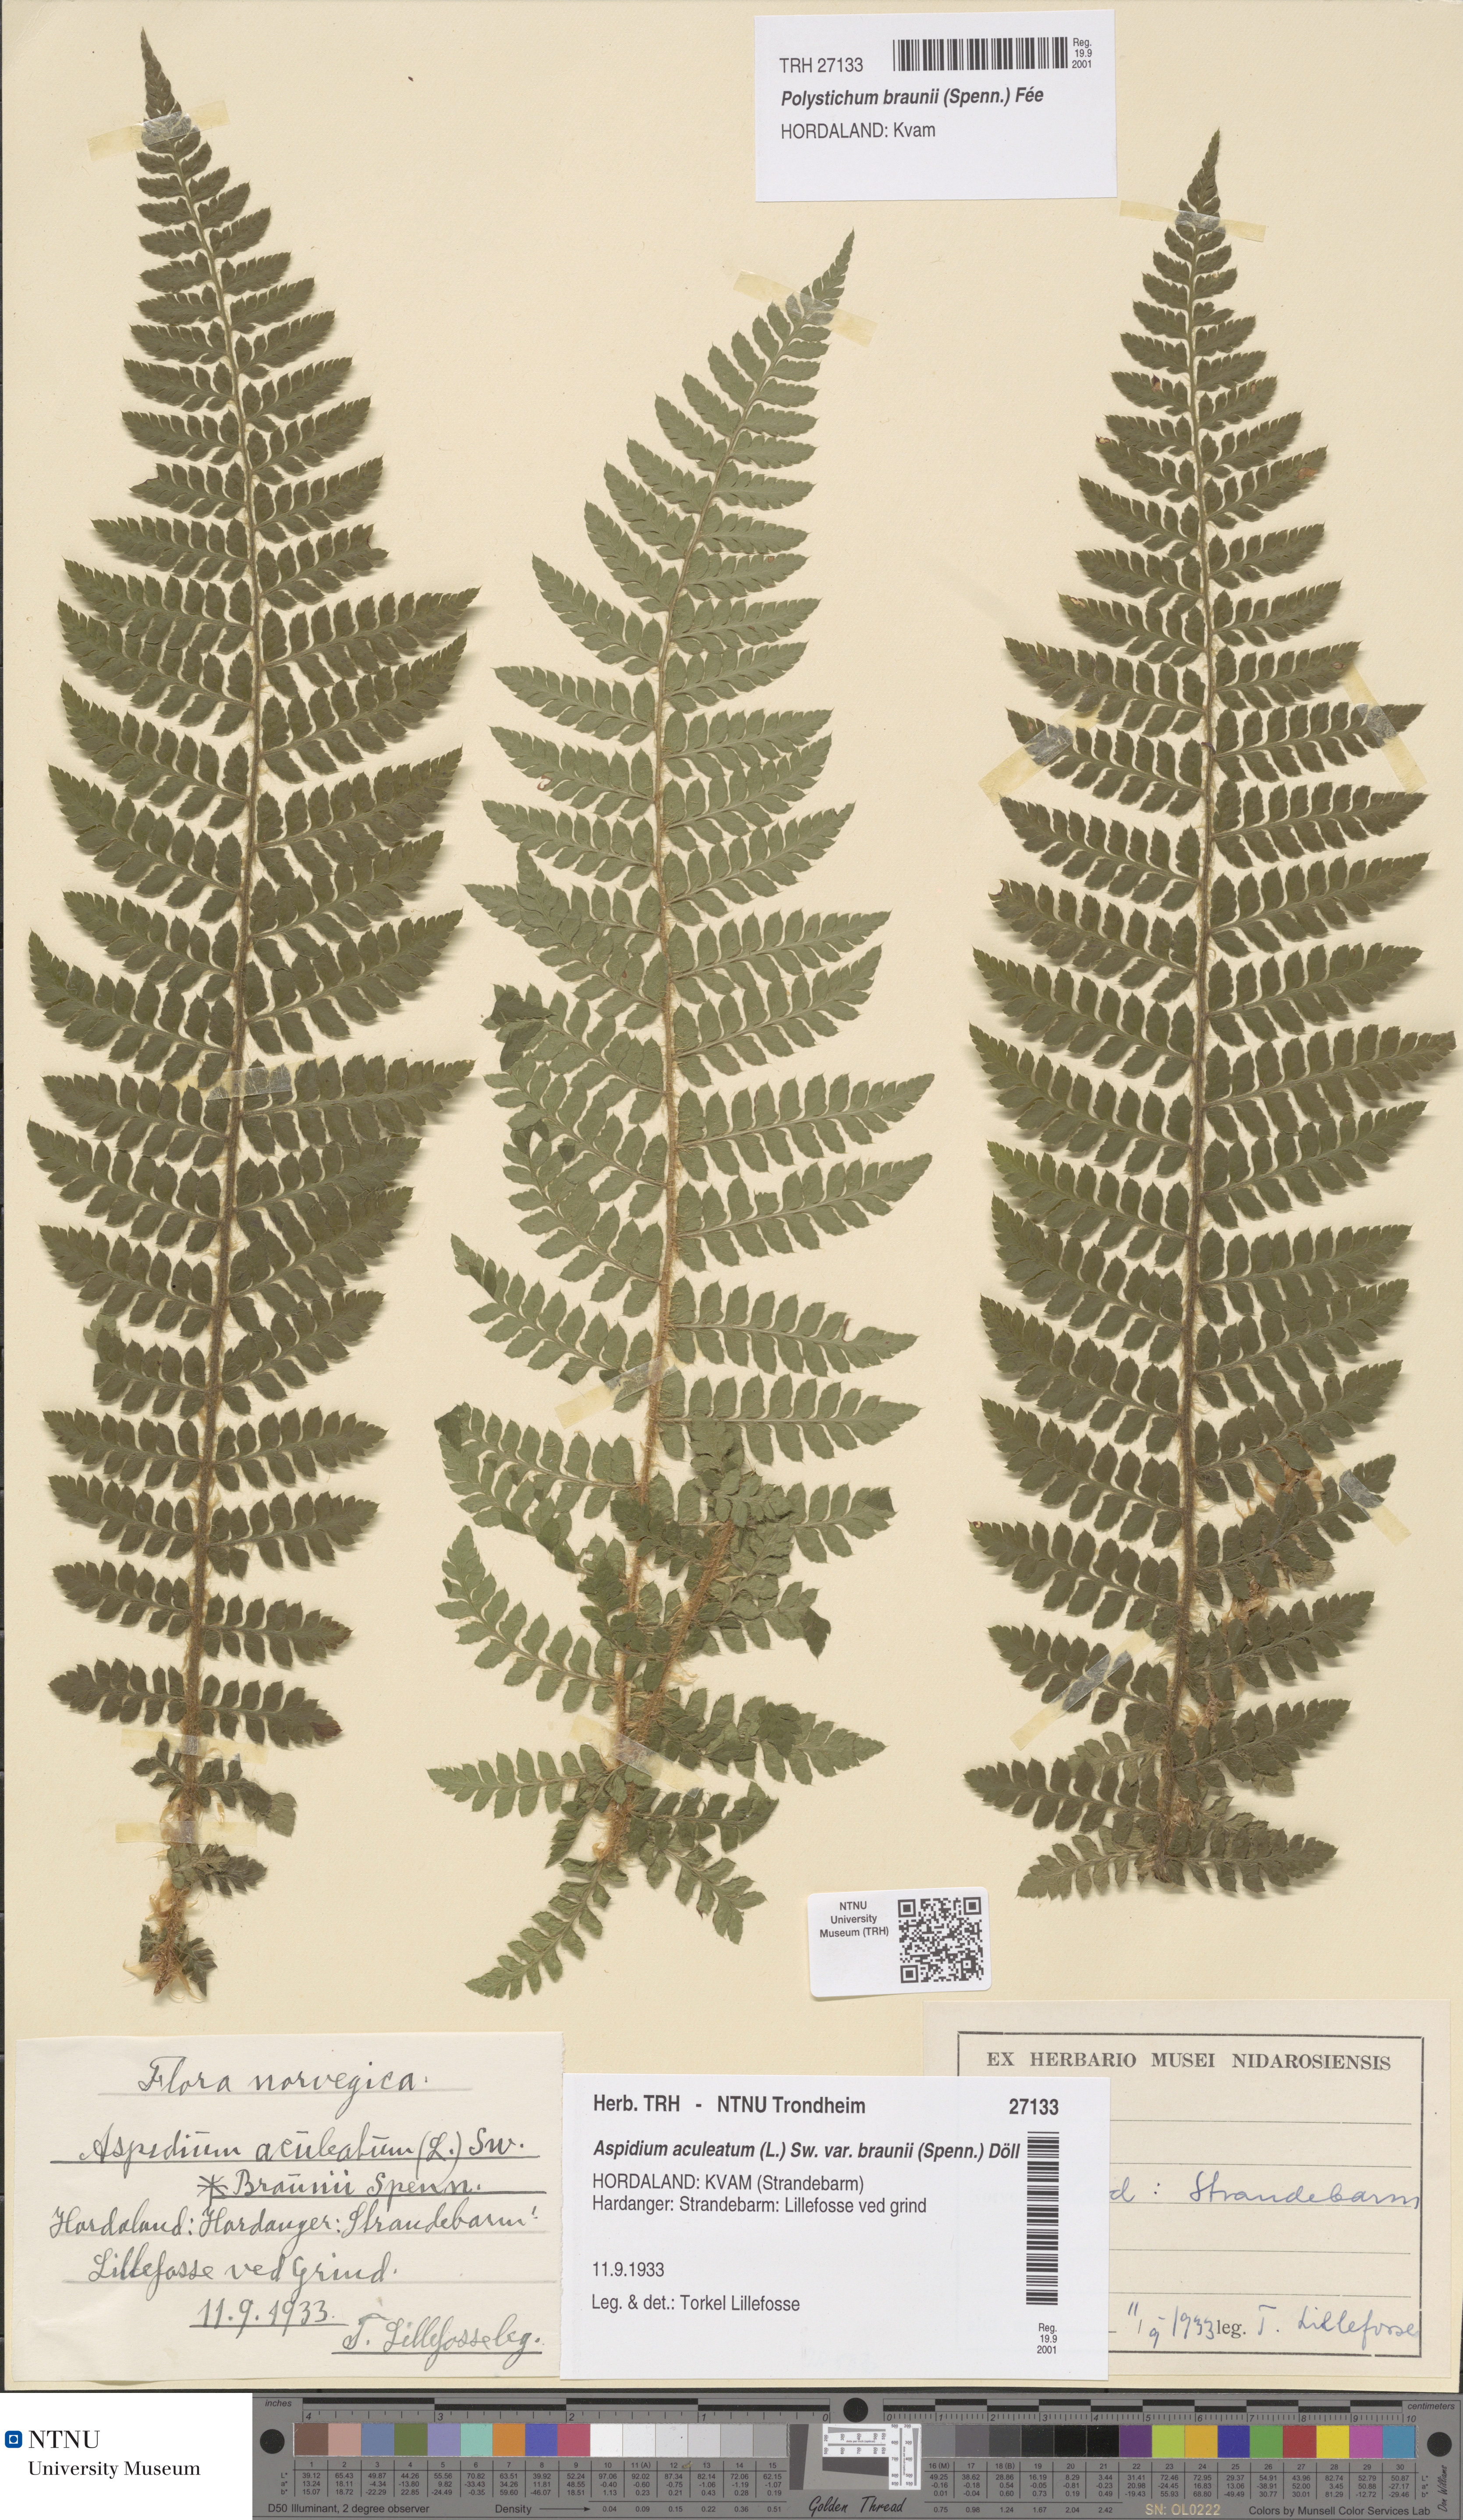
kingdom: Plantae
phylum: Tracheophyta
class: Polypodiopsida
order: Polypodiales
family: Dryopteridaceae
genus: Polystichum
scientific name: Polystichum braunii
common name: Braun's holly fern
